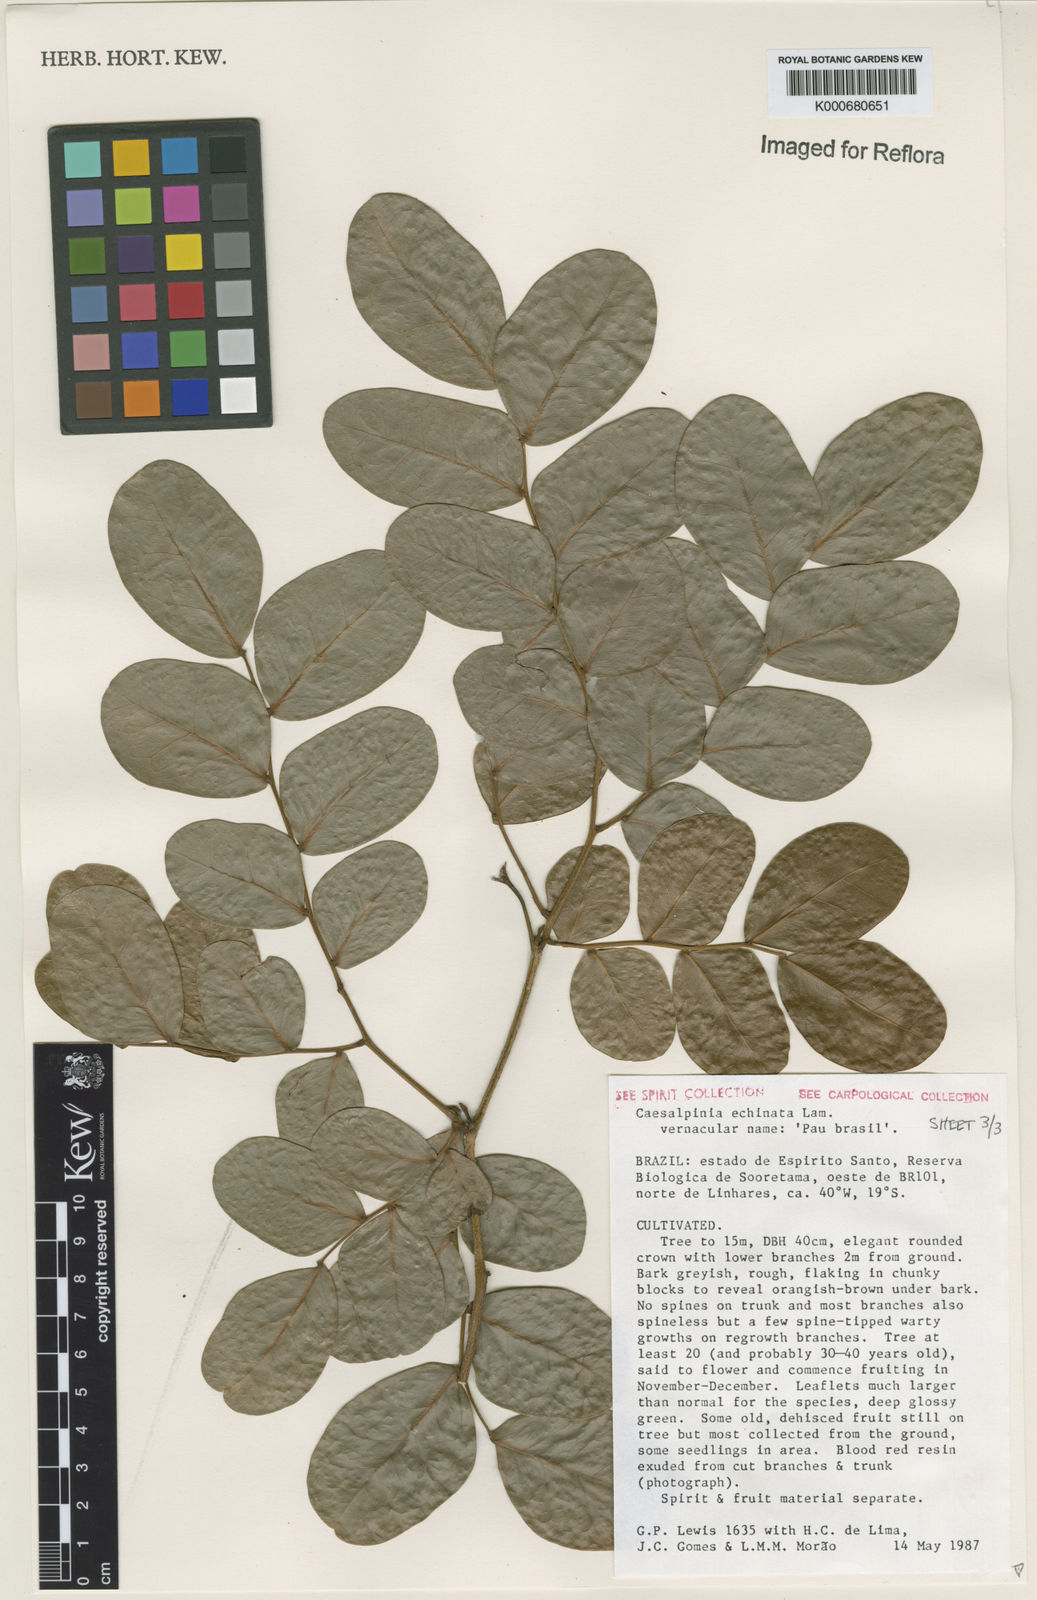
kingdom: Plantae
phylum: Tracheophyta
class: Magnoliopsida
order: Fabales
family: Fabaceae
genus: Paubrasilia
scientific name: Paubrasilia echinata
